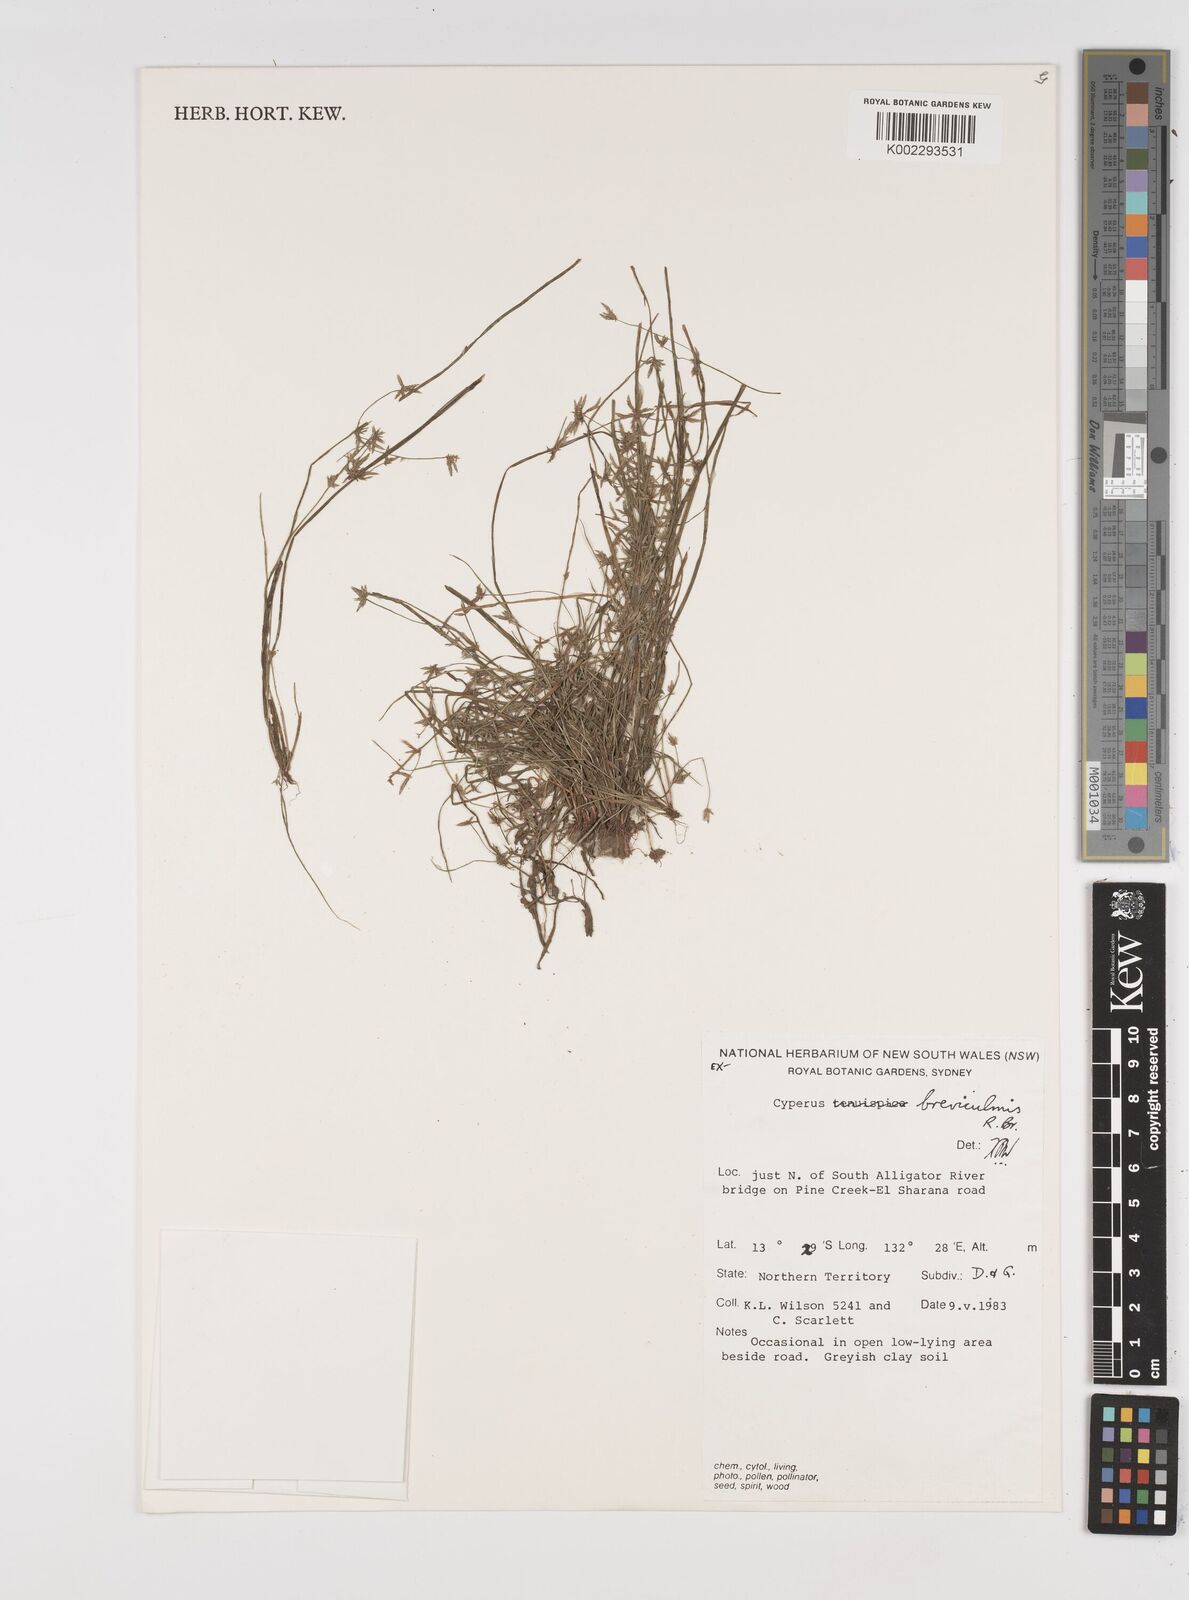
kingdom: Plantae
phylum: Tracheophyta
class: Liliopsida
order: Poales
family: Cyperaceae
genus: Cyperus
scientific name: Cyperus breviculmis
